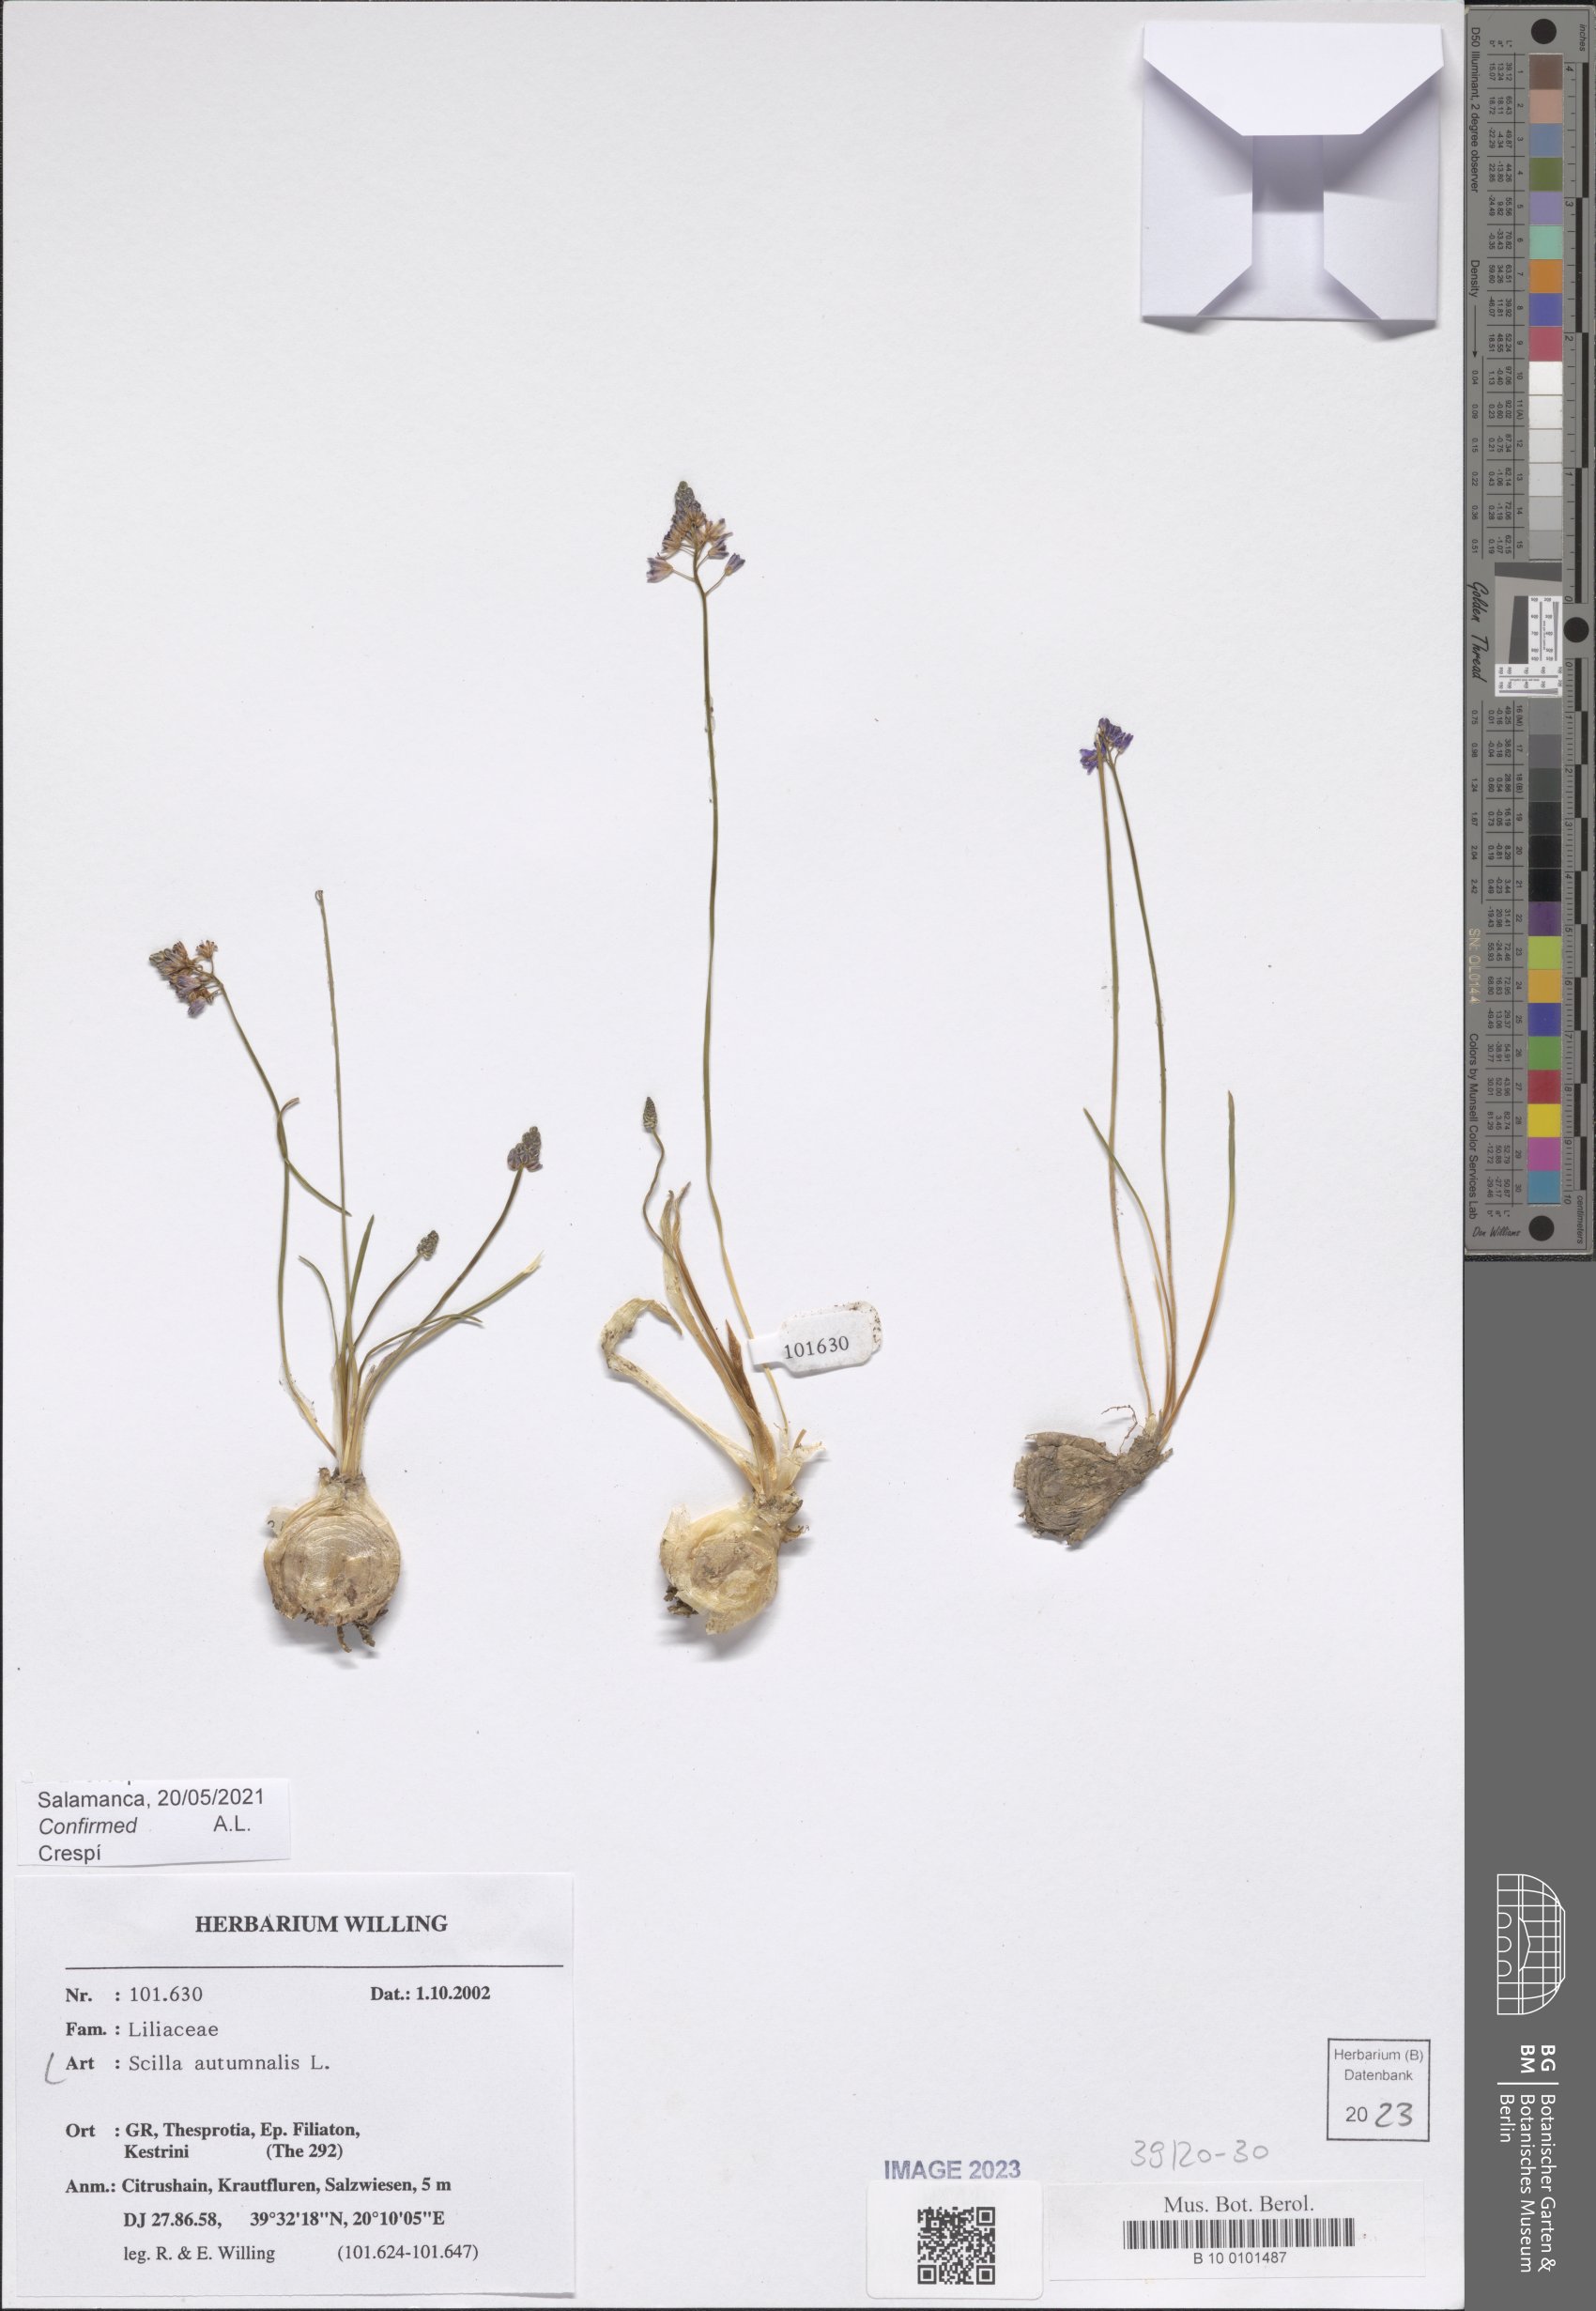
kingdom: Plantae
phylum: Tracheophyta
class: Liliopsida
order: Asparagales
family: Asparagaceae
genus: Prospero
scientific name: Prospero autumnale
